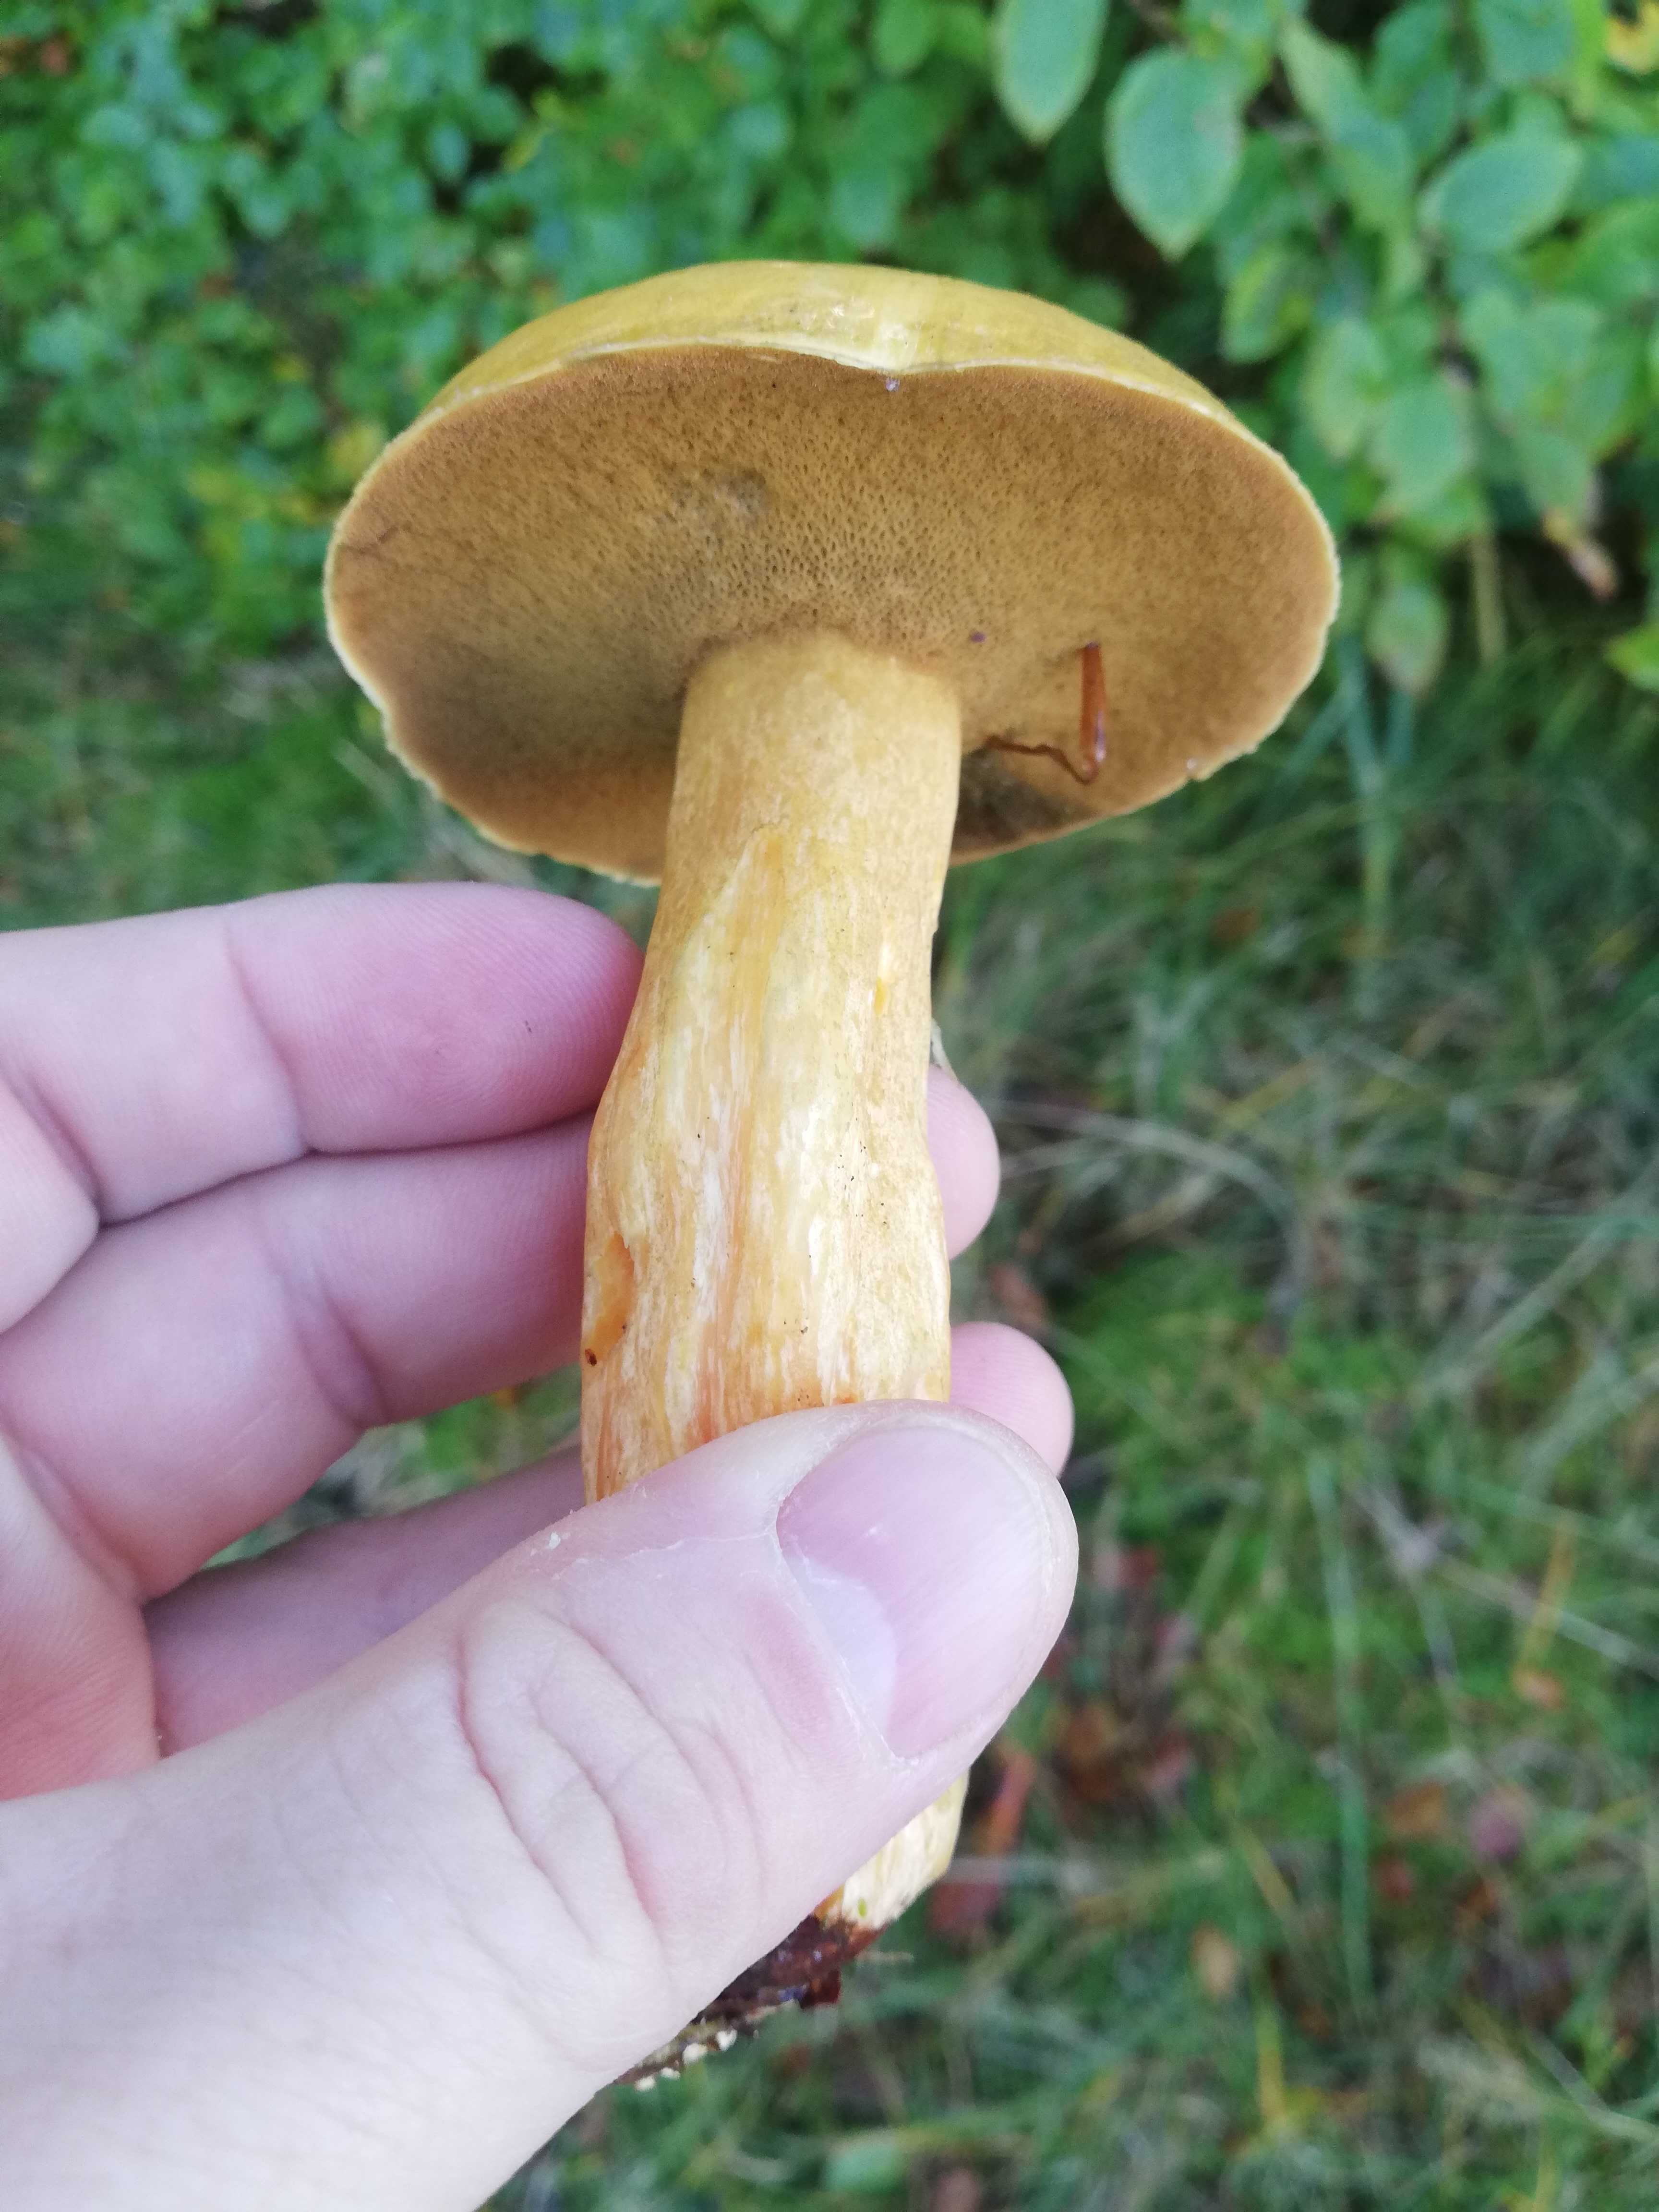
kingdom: Fungi
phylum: Basidiomycota
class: Agaricomycetes
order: Boletales
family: Suillaceae
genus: Suillus
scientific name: Suillus variegatus
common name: broget slimrørhat
